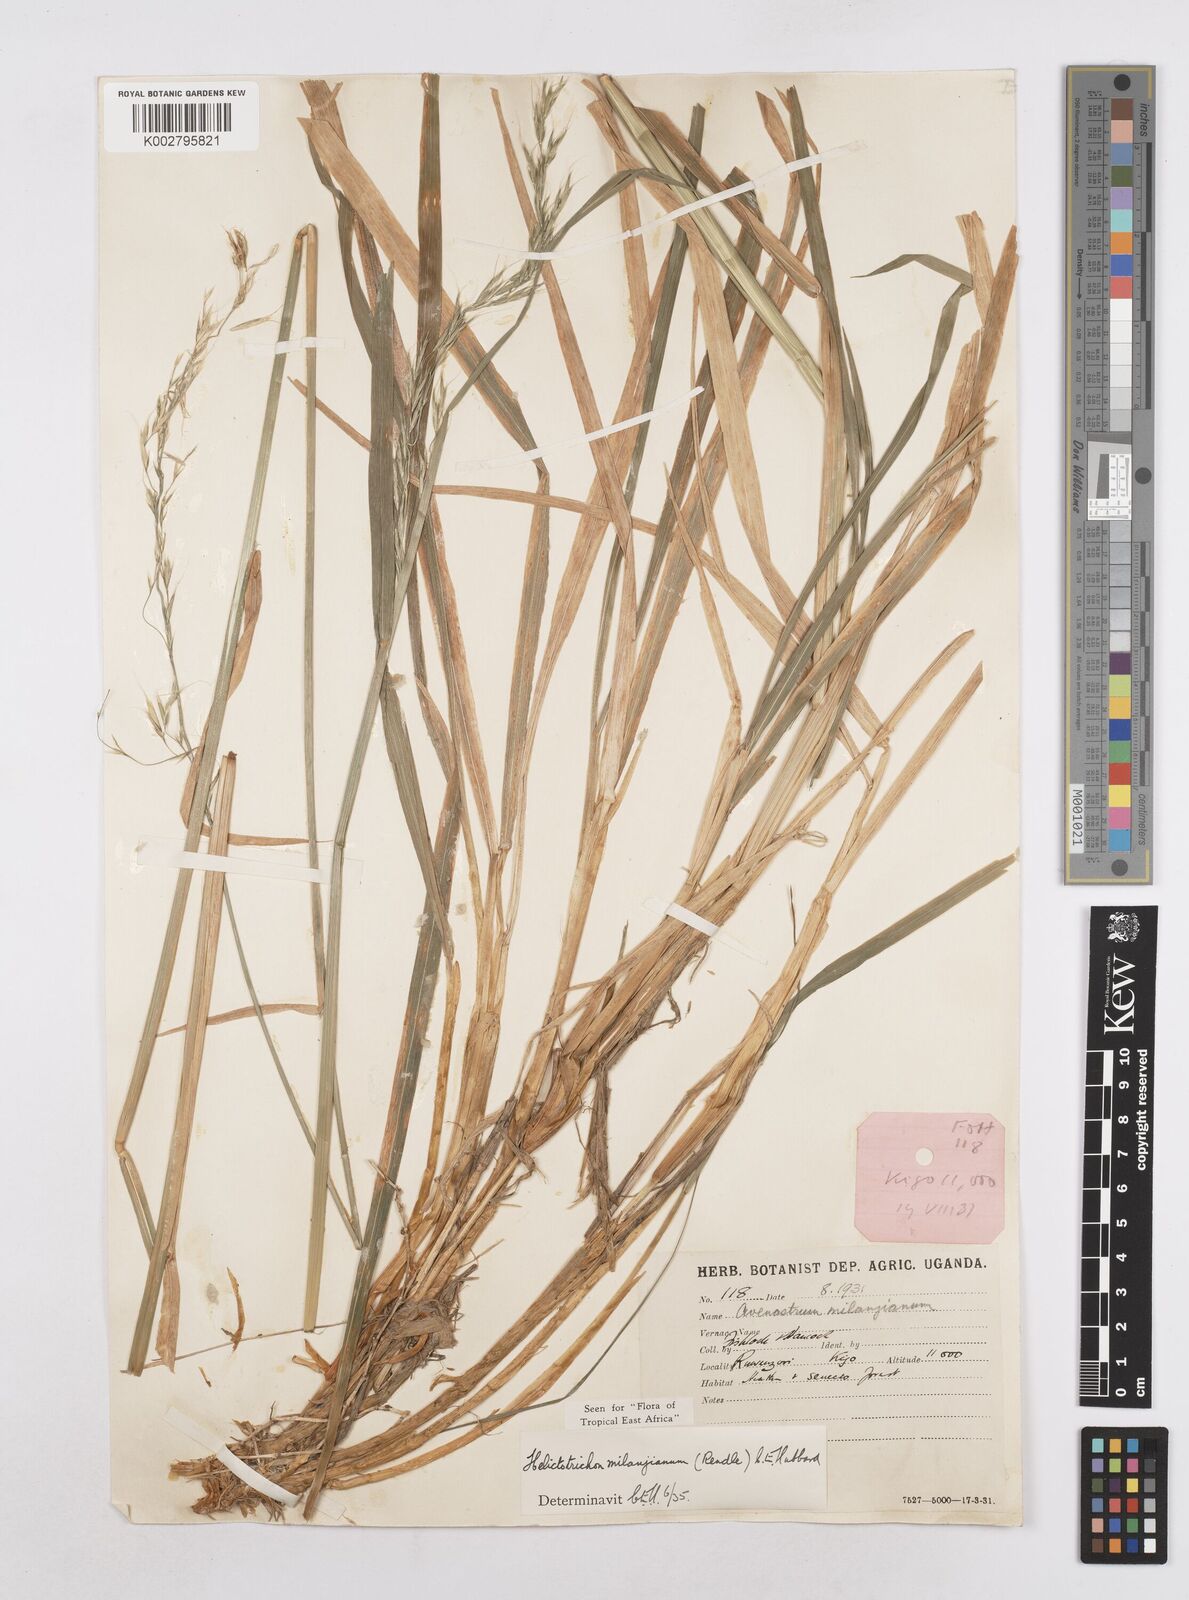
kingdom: Plantae
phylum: Tracheophyta
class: Liliopsida
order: Poales
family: Poaceae
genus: Trisetopsis
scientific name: Trisetopsis milanjiana
